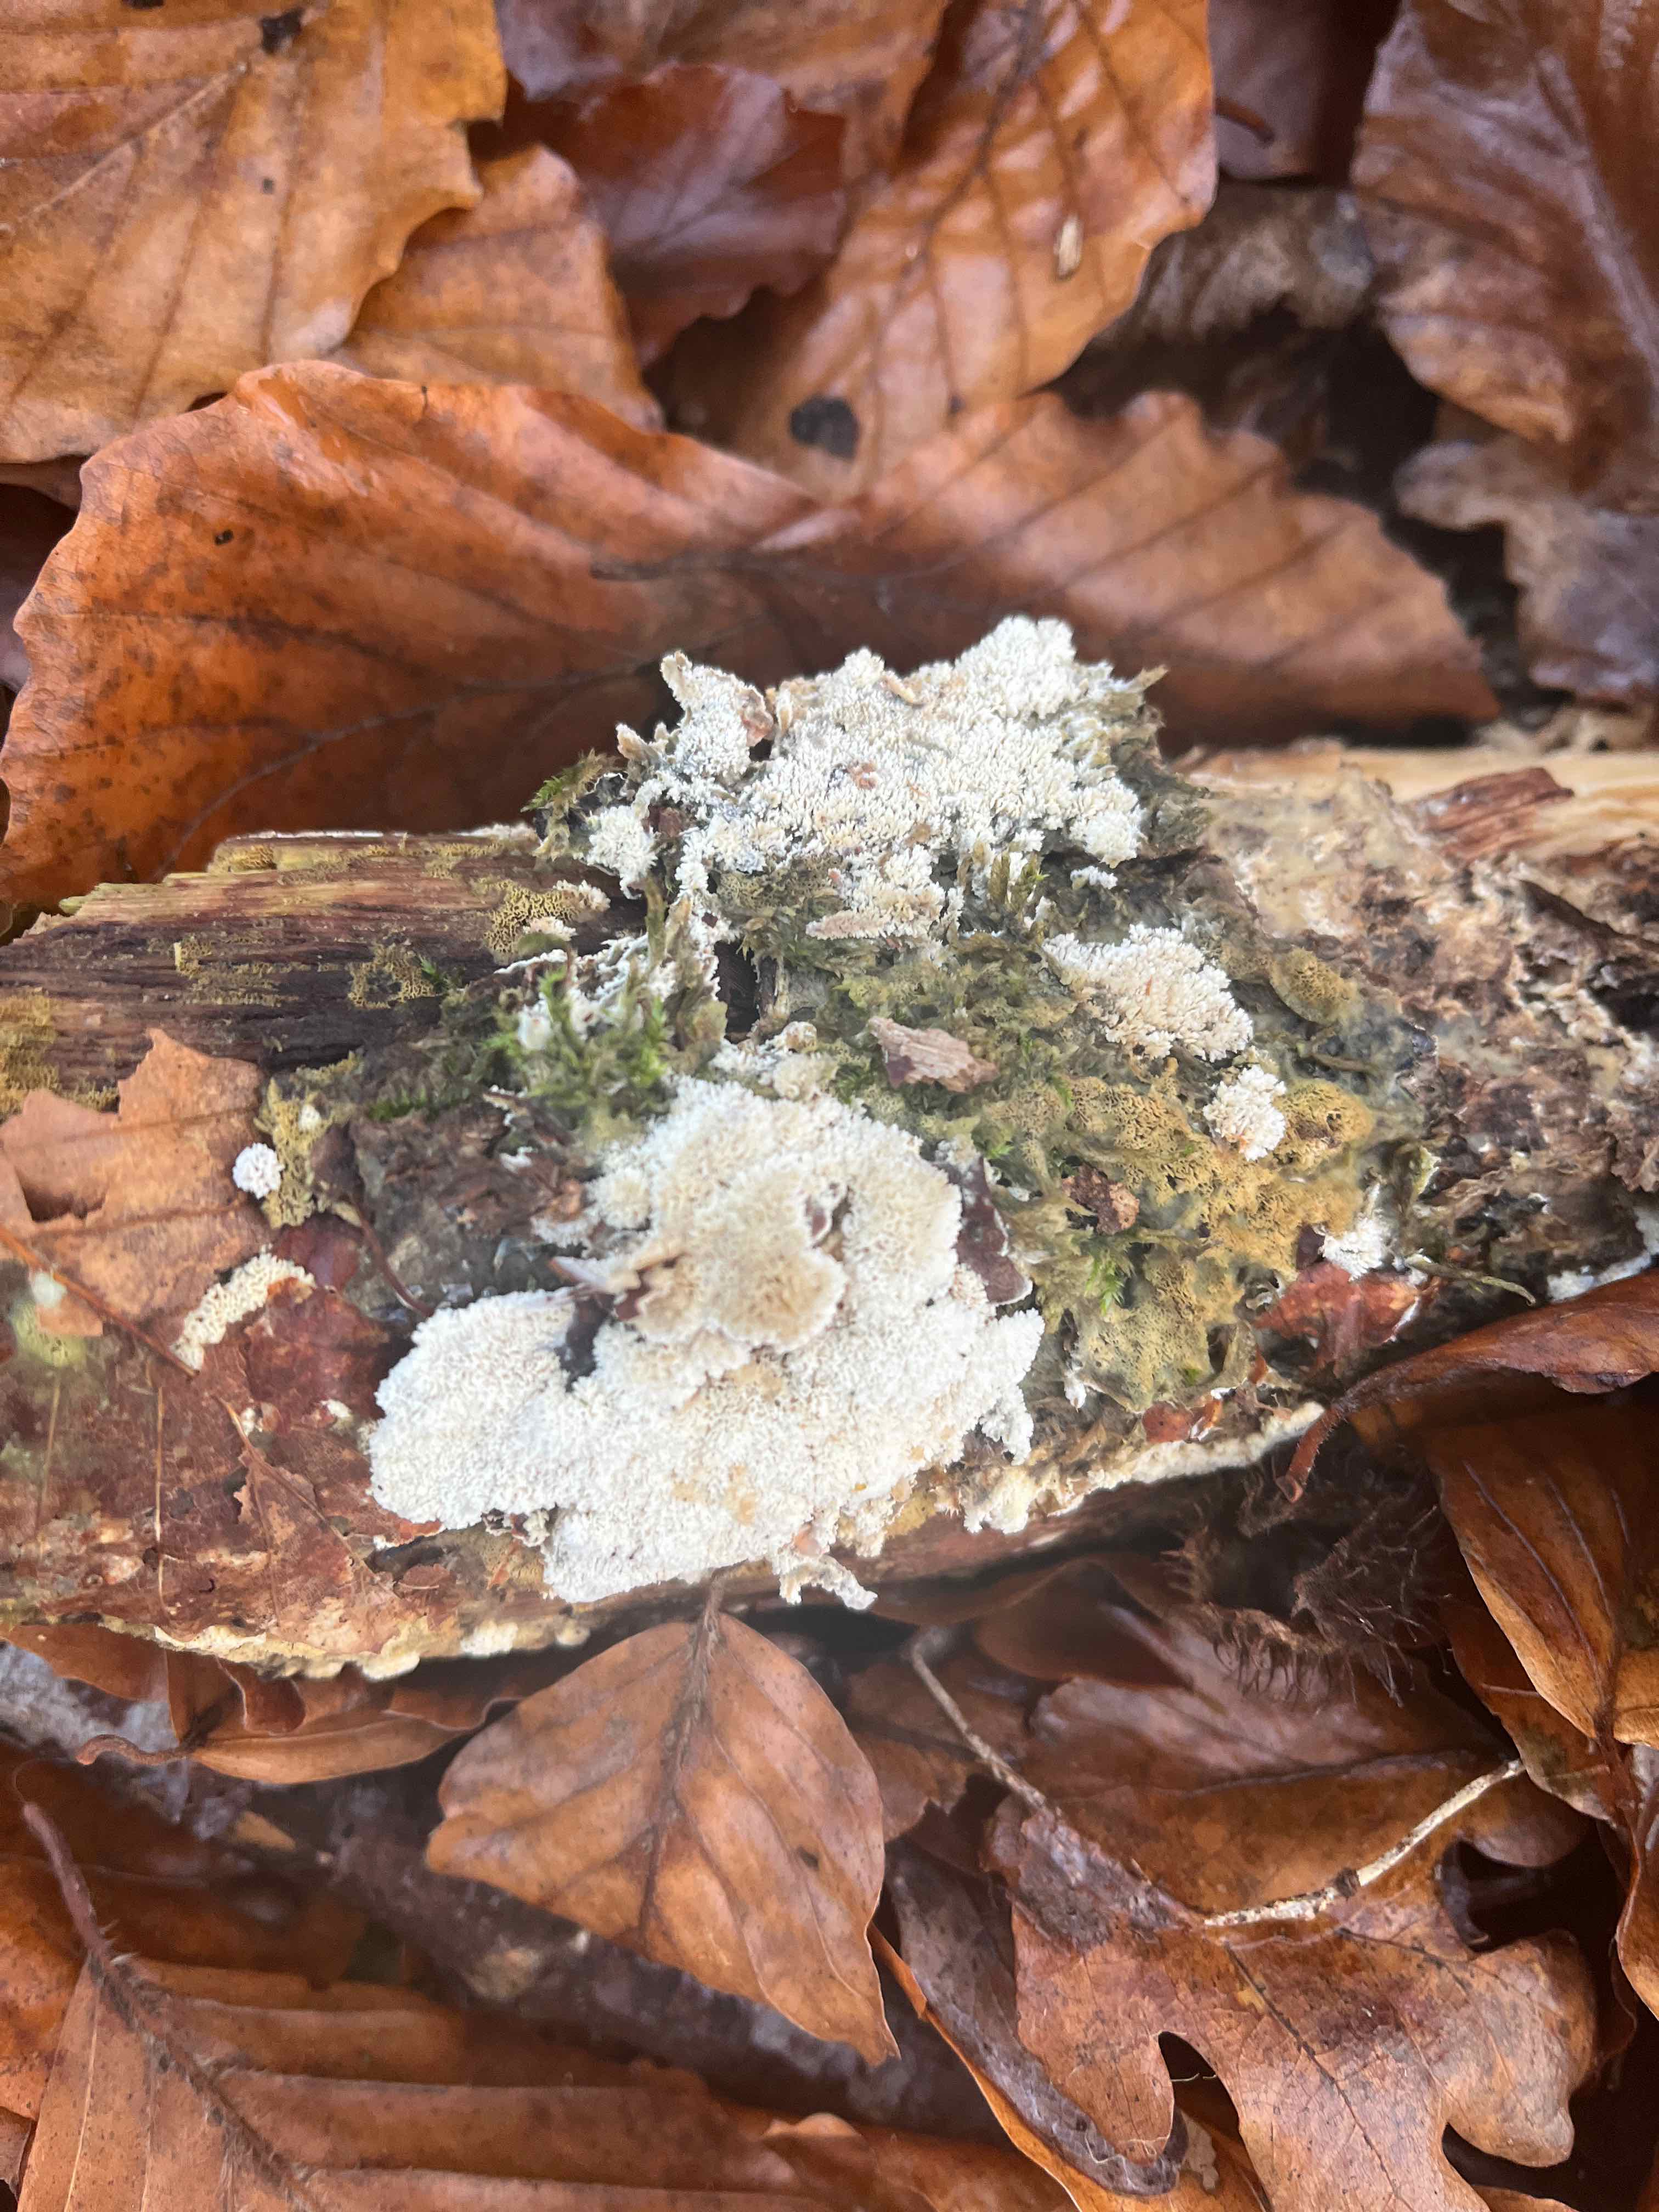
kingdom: Fungi
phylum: Basidiomycota
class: Agaricomycetes
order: Hymenochaetales
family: Schizoporaceae
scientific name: Schizoporaceae
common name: tandsvampfamilien
